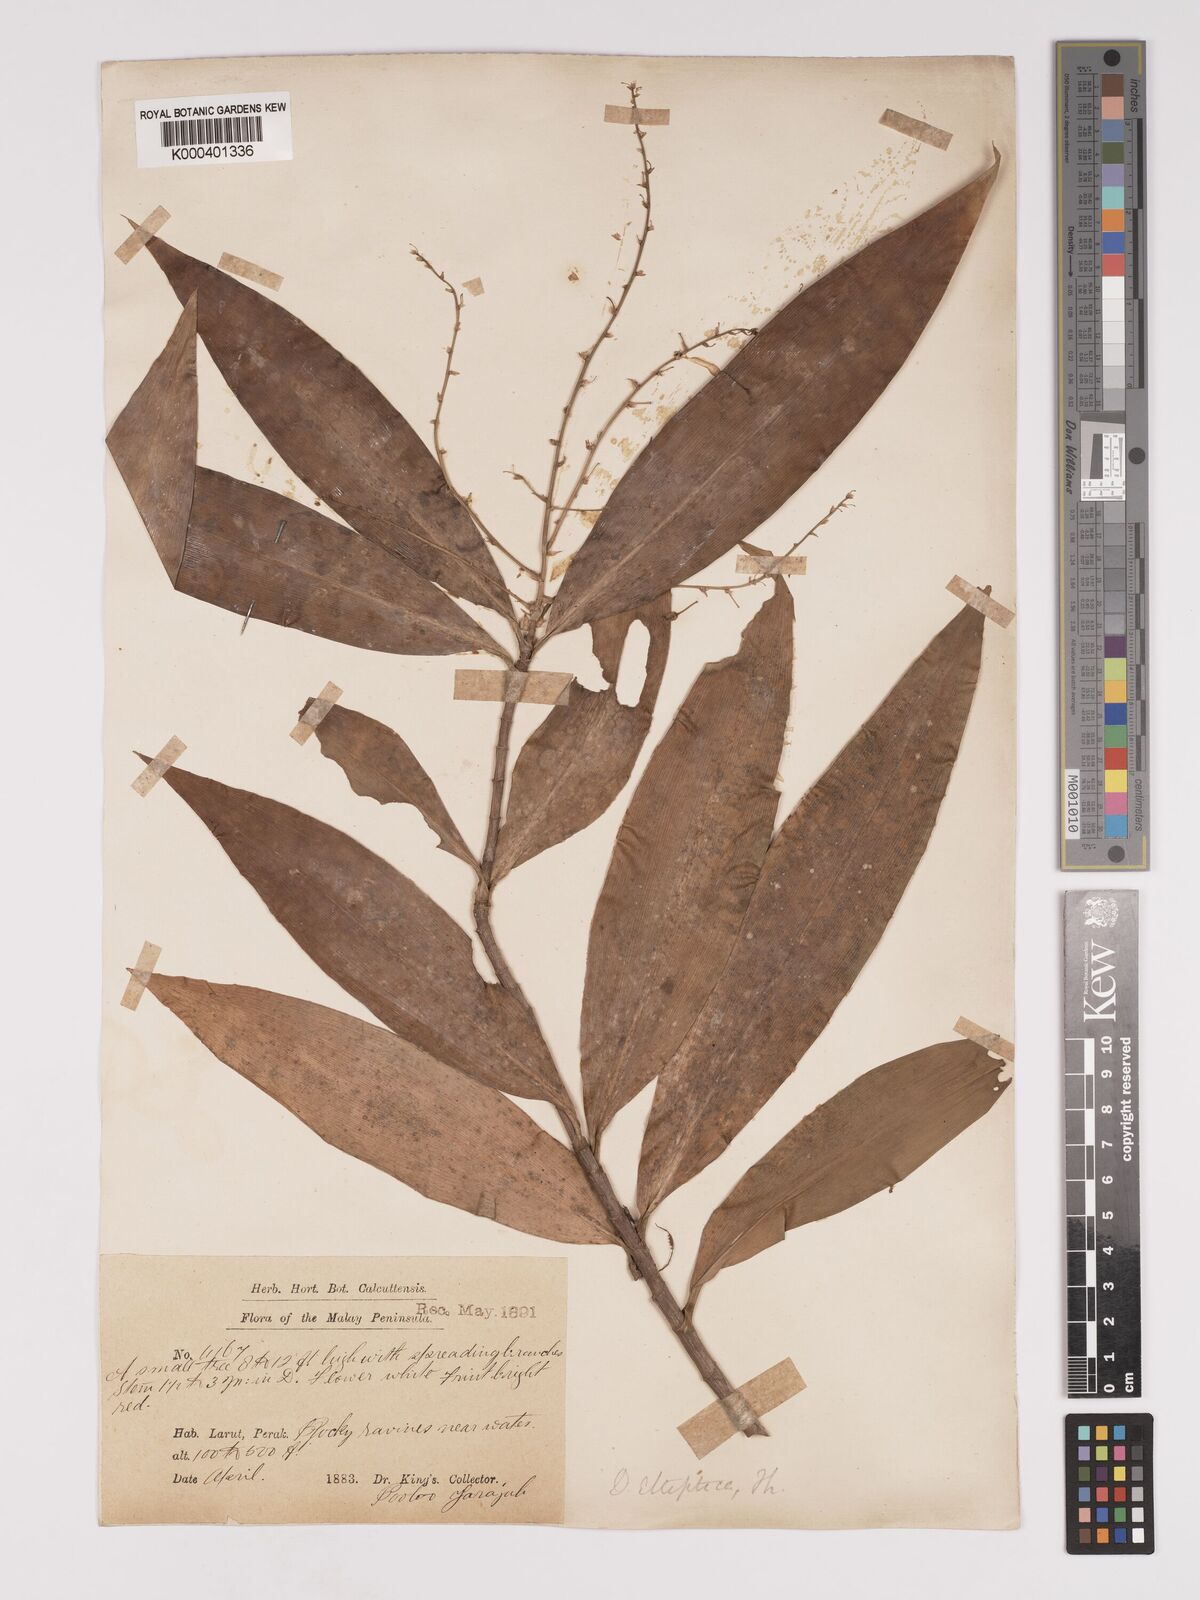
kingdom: Plantae
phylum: Tracheophyta
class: Liliopsida
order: Asparagales
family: Asparagaceae
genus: Dracaena
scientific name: Dracaena elliptica
